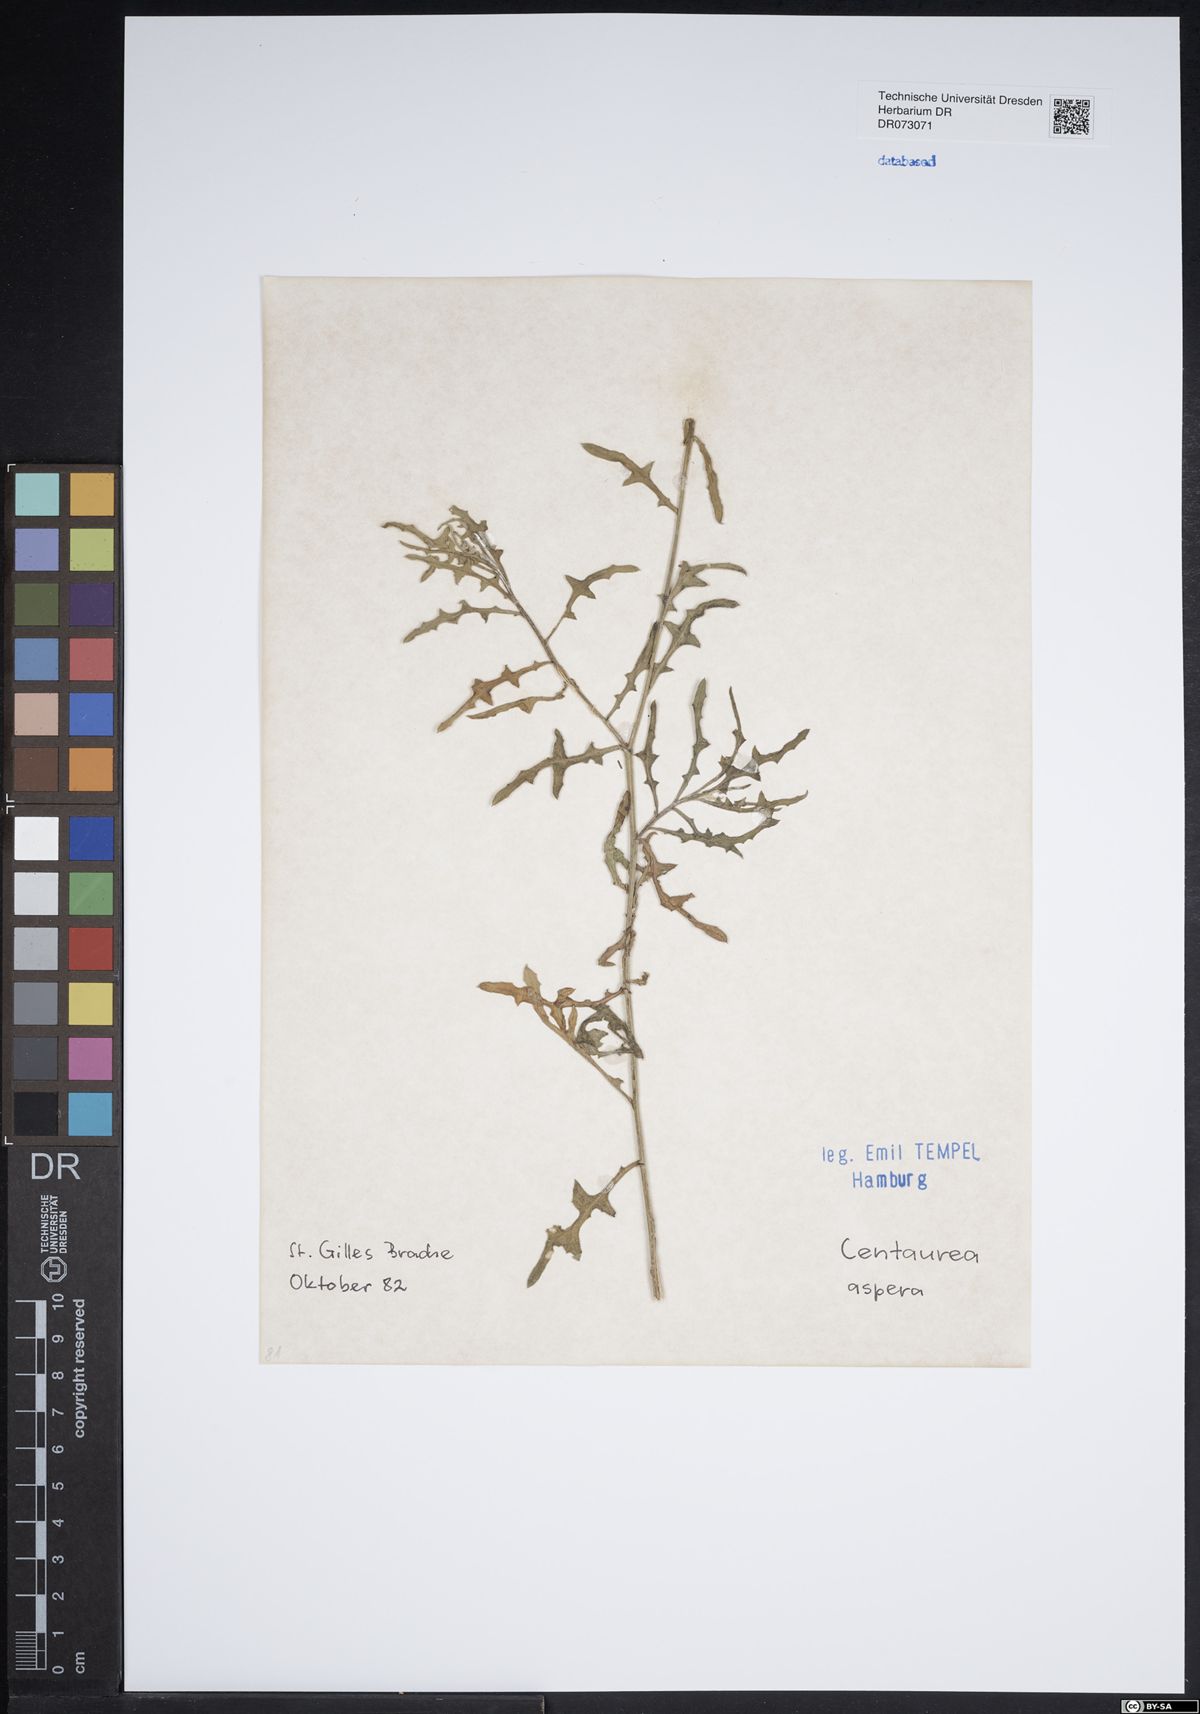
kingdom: Plantae
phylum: Tracheophyta
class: Magnoliopsida
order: Asterales
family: Asteraceae
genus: Centaurea
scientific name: Centaurea aspera
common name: Rough star-thistle
